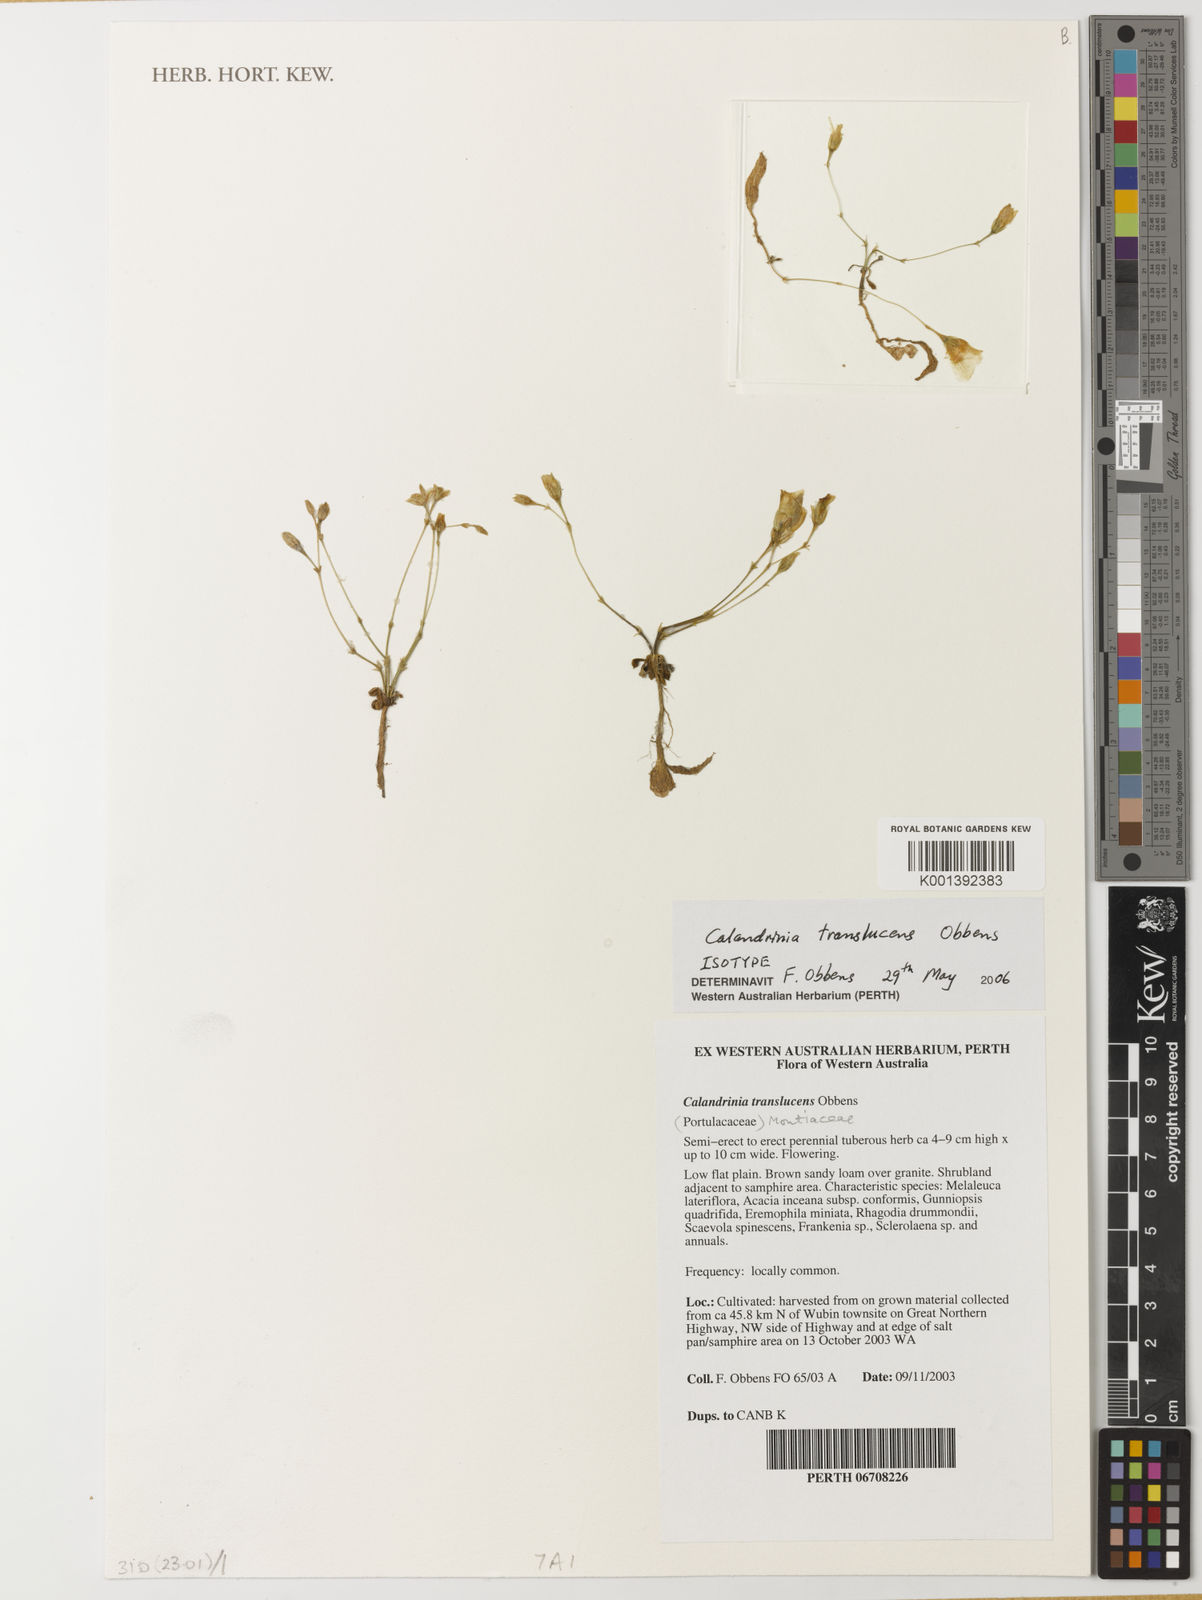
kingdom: Plantae
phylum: Tracheophyta
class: Magnoliopsida
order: Caryophyllales
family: Montiaceae
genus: Rumicastrum
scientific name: Rumicastrum translucens
